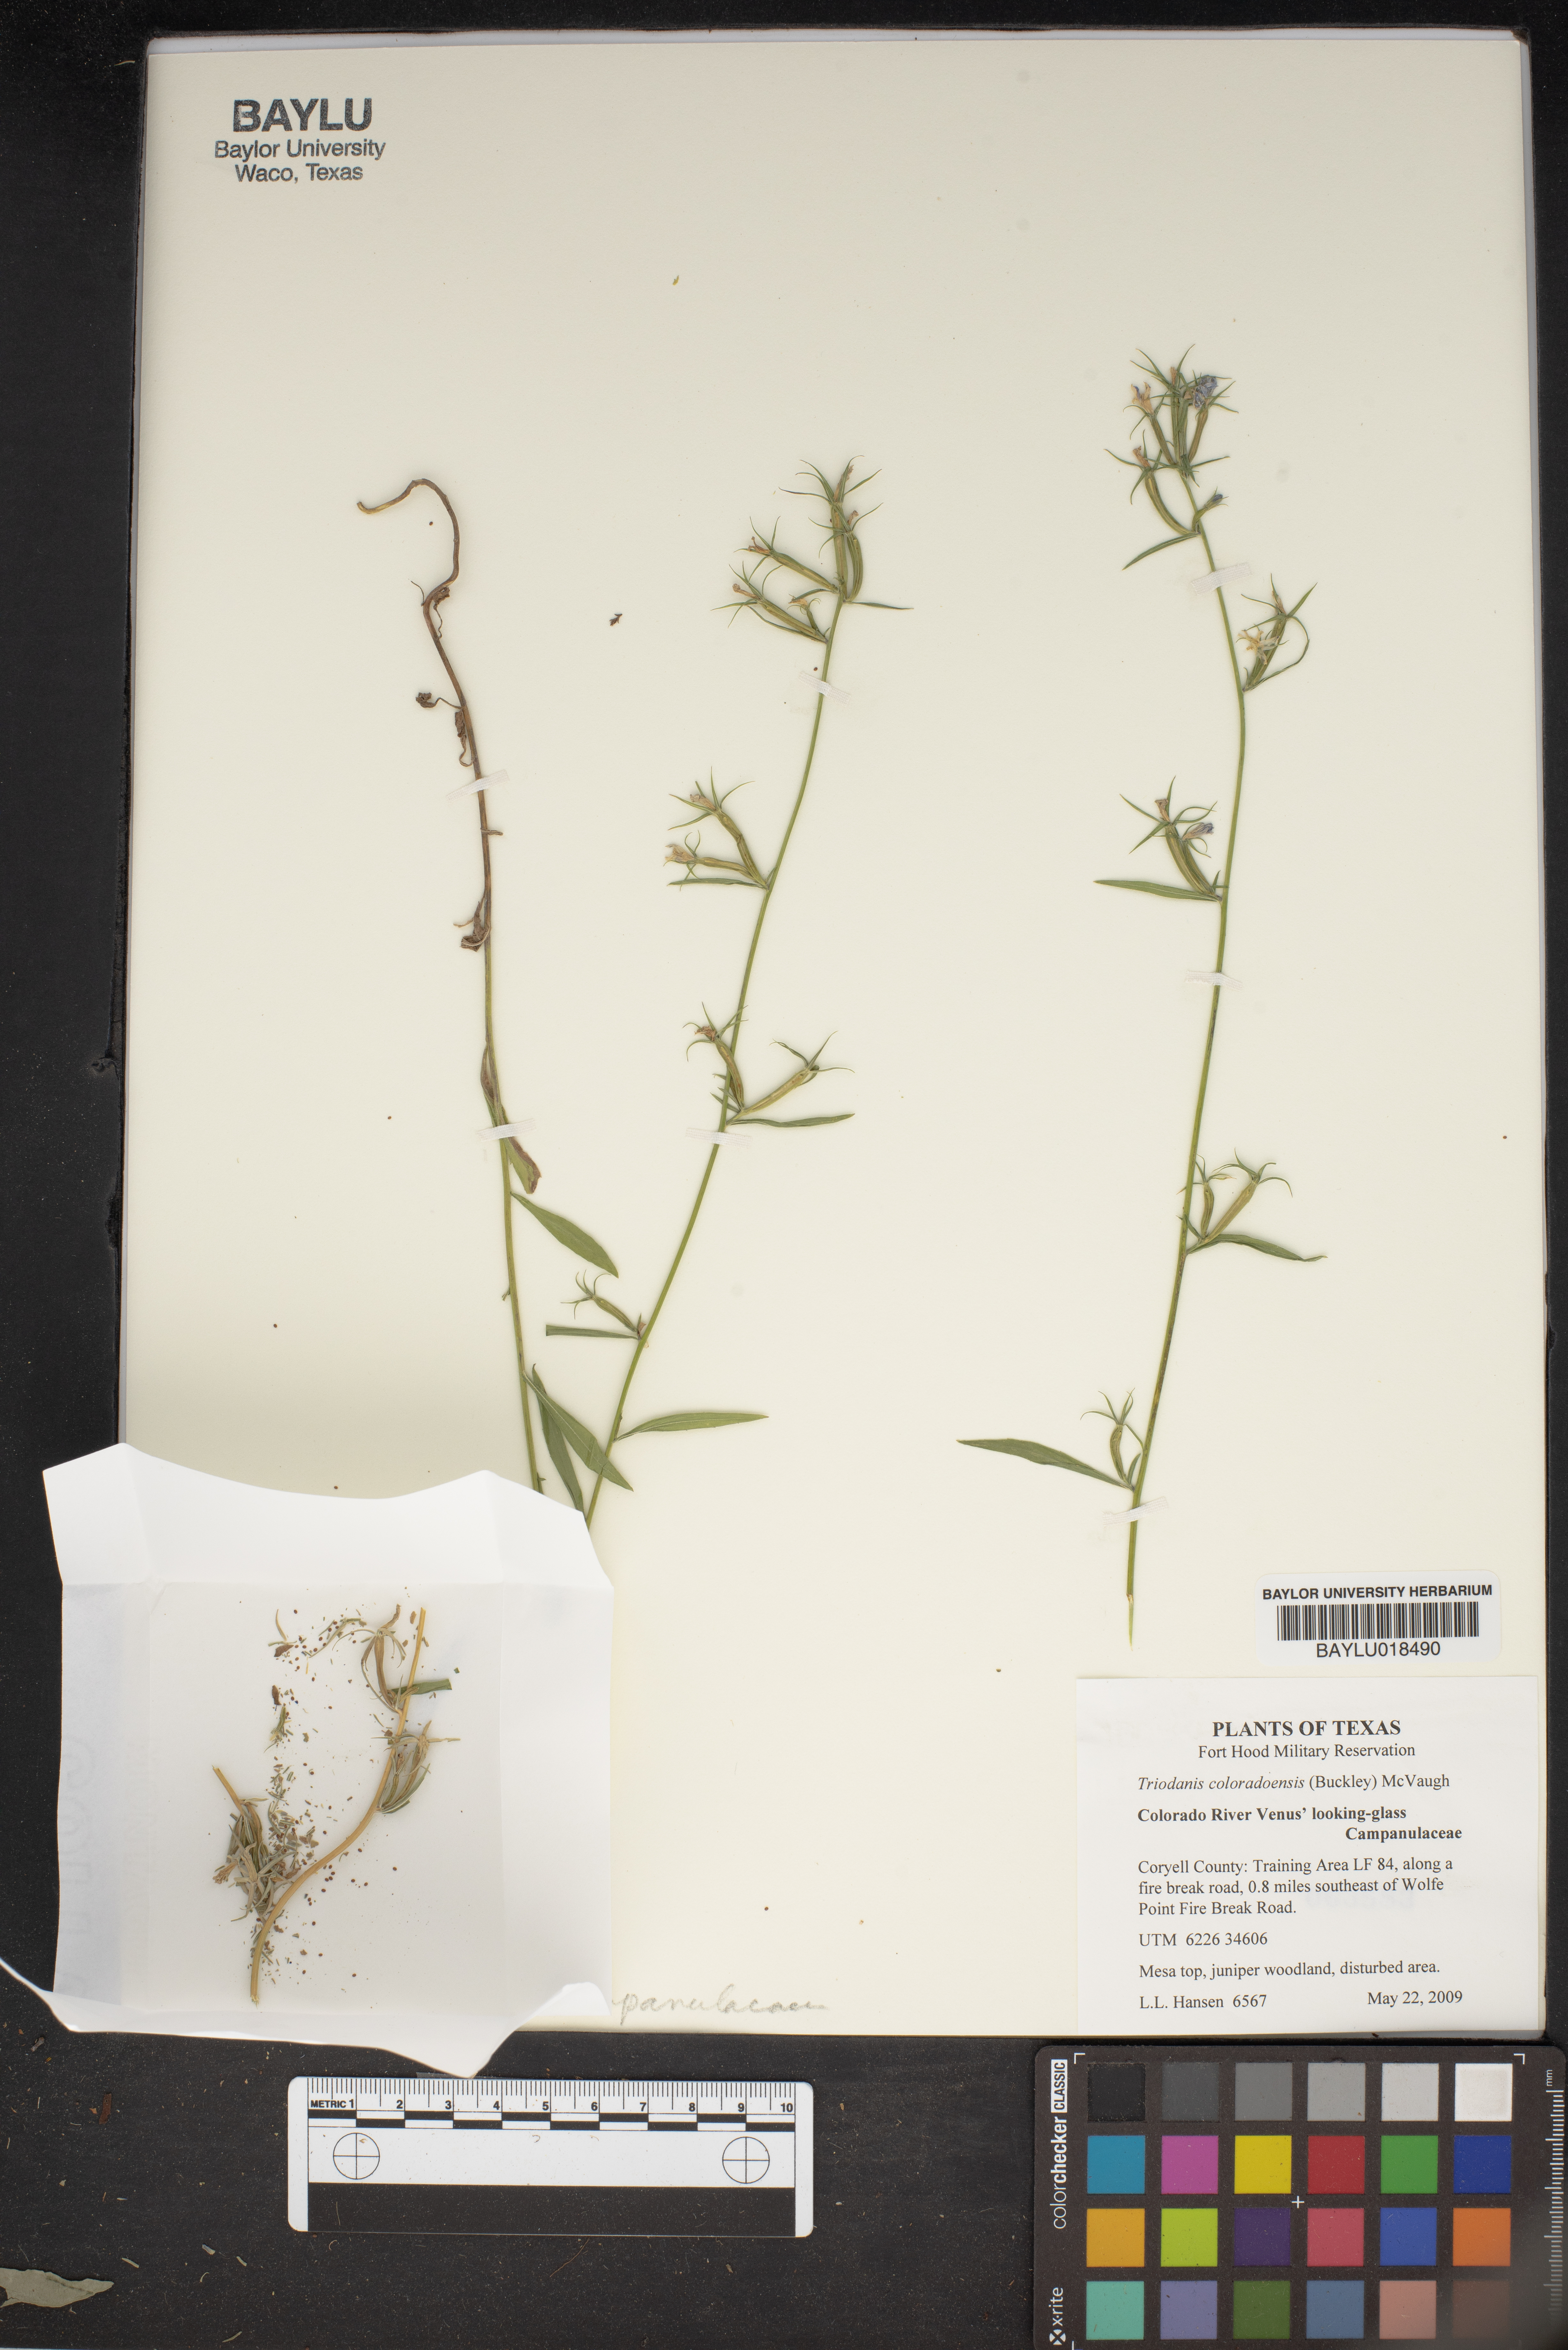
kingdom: Plantae
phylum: Tracheophyta
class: Magnoliopsida
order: Asterales
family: Campanulaceae
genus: Triodanis
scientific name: Triodanis coloradoensis
